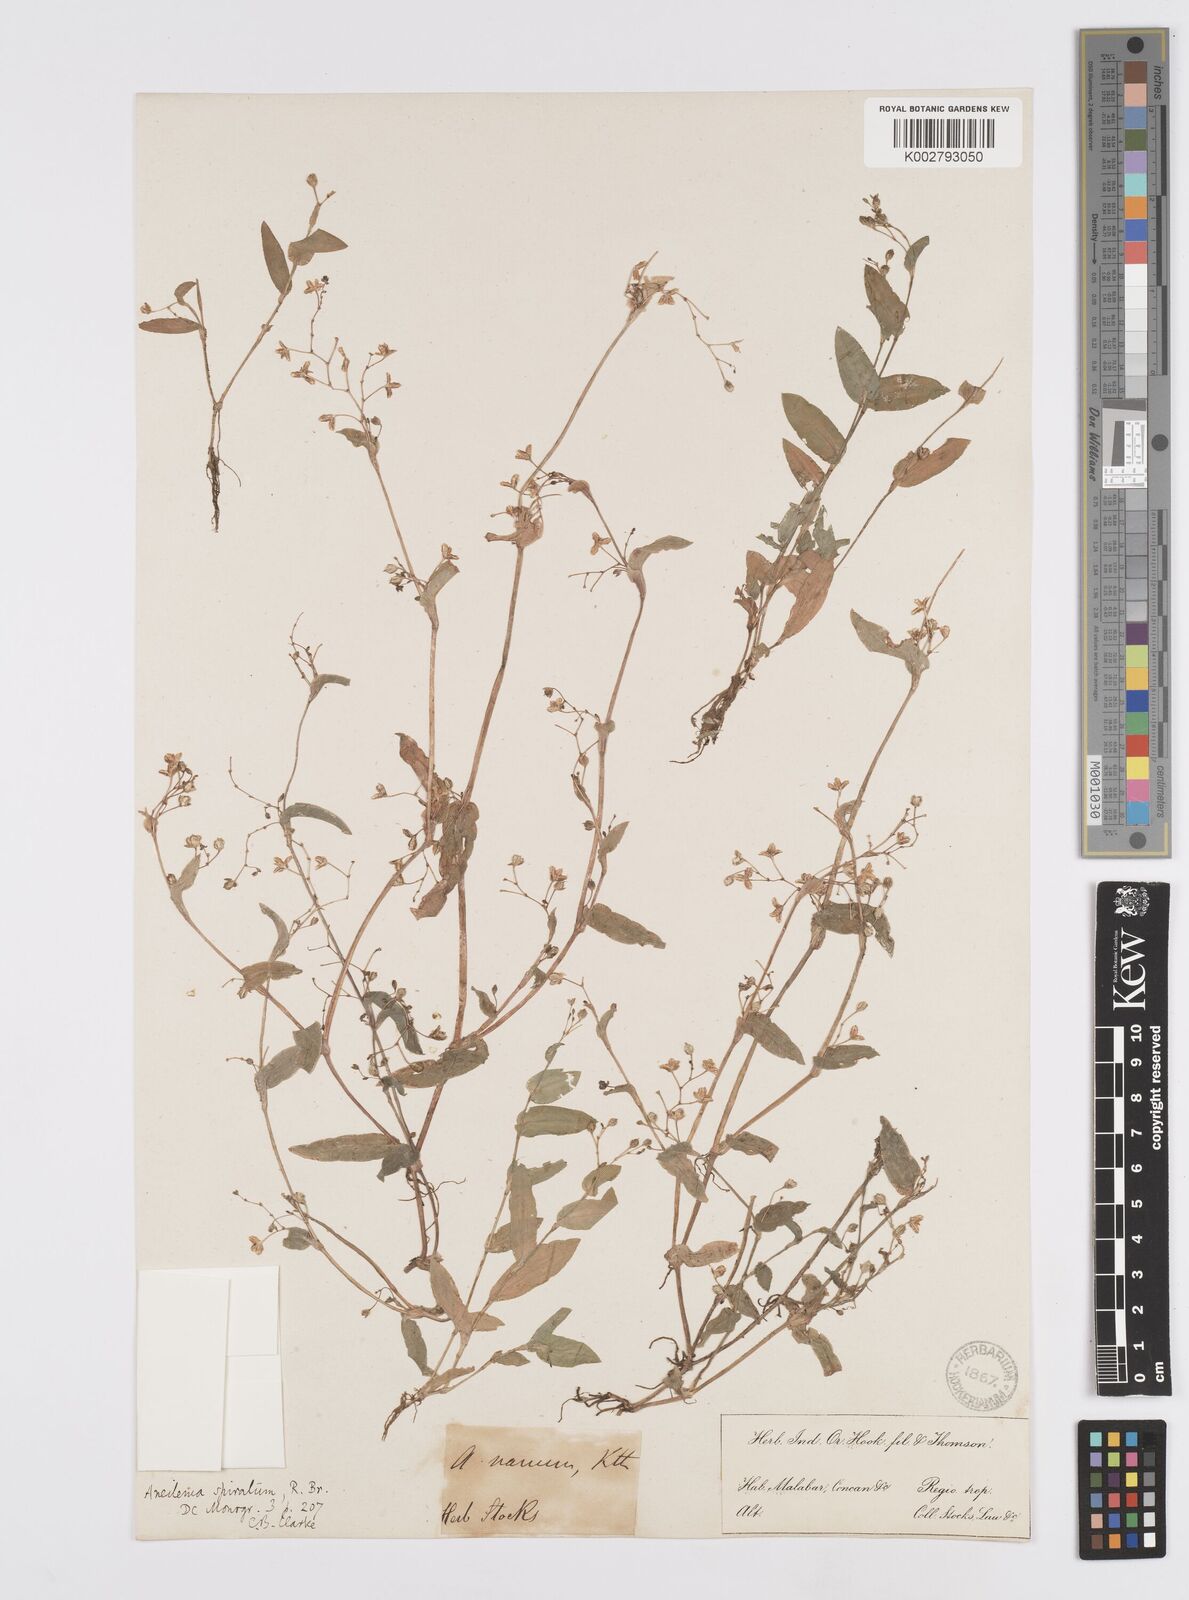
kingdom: Plantae
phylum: Tracheophyta
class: Liliopsida
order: Commelinales
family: Commelinaceae
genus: Murdannia
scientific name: Murdannia spirata
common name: Asiatic dewflower
